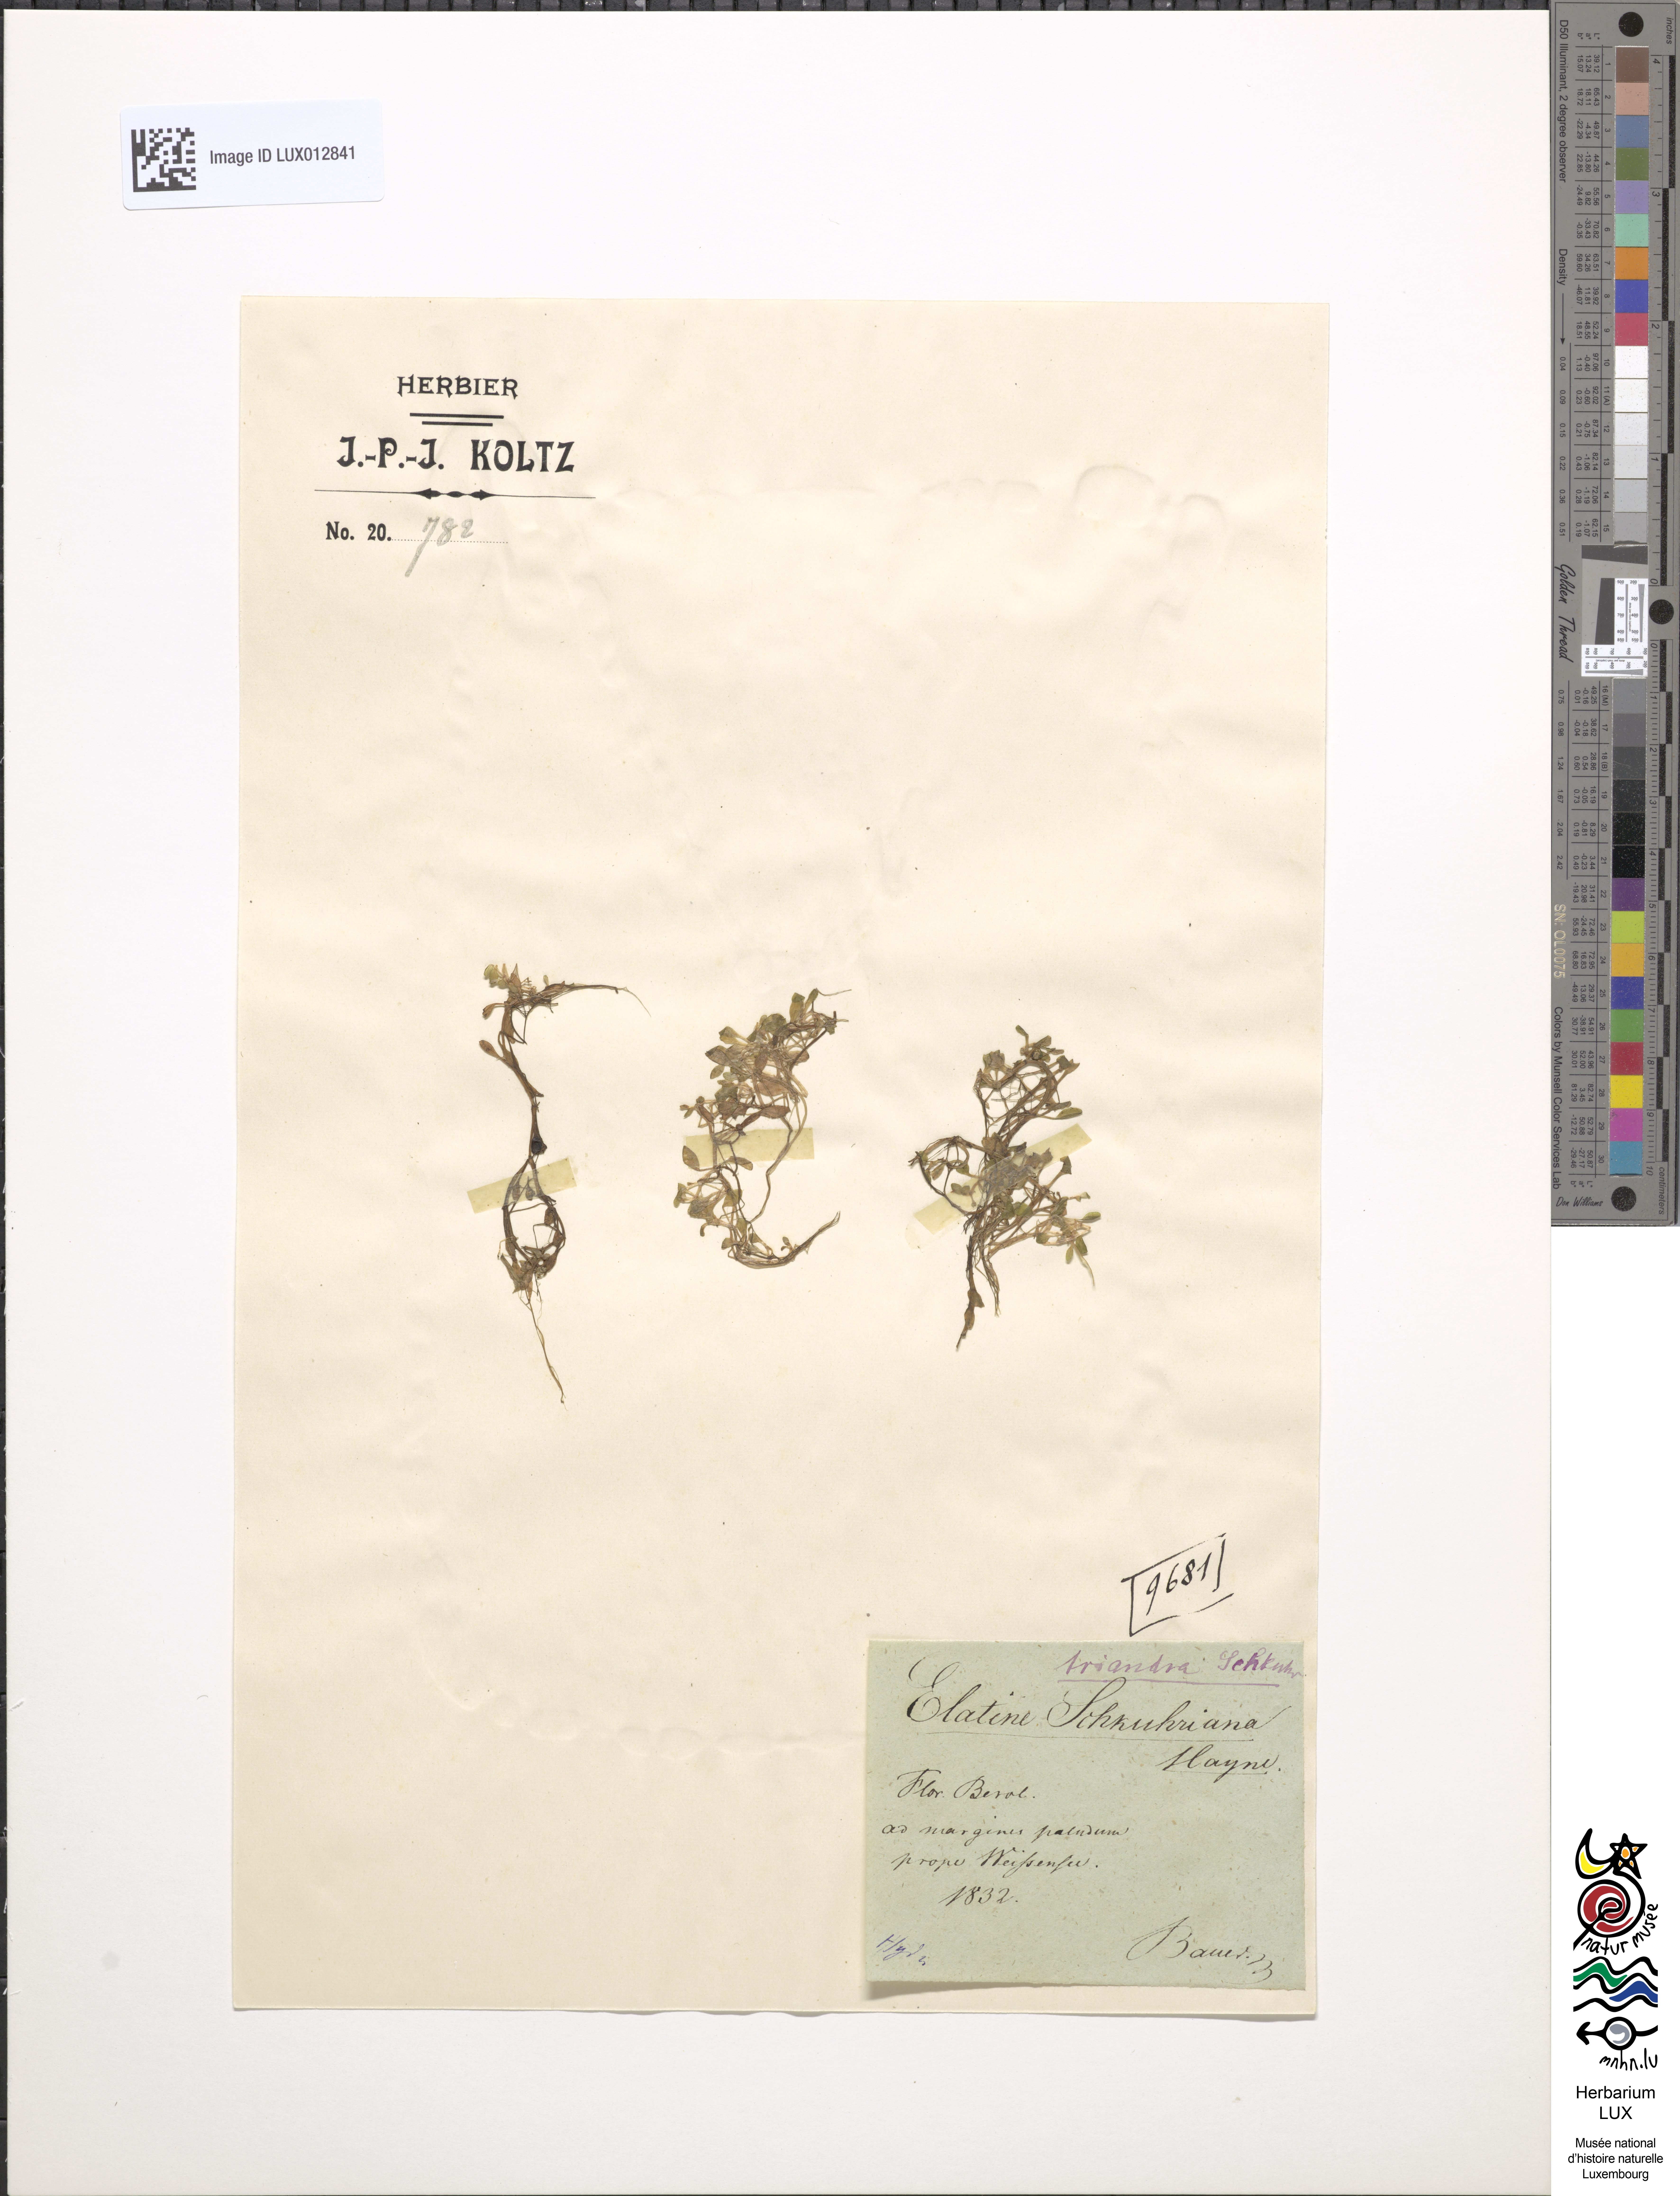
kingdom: Plantae
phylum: Tracheophyta
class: Magnoliopsida
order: Malpighiales
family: Elatinaceae
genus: Elatine
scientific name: Elatine hydropiper
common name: Eight-stamened waterwort
